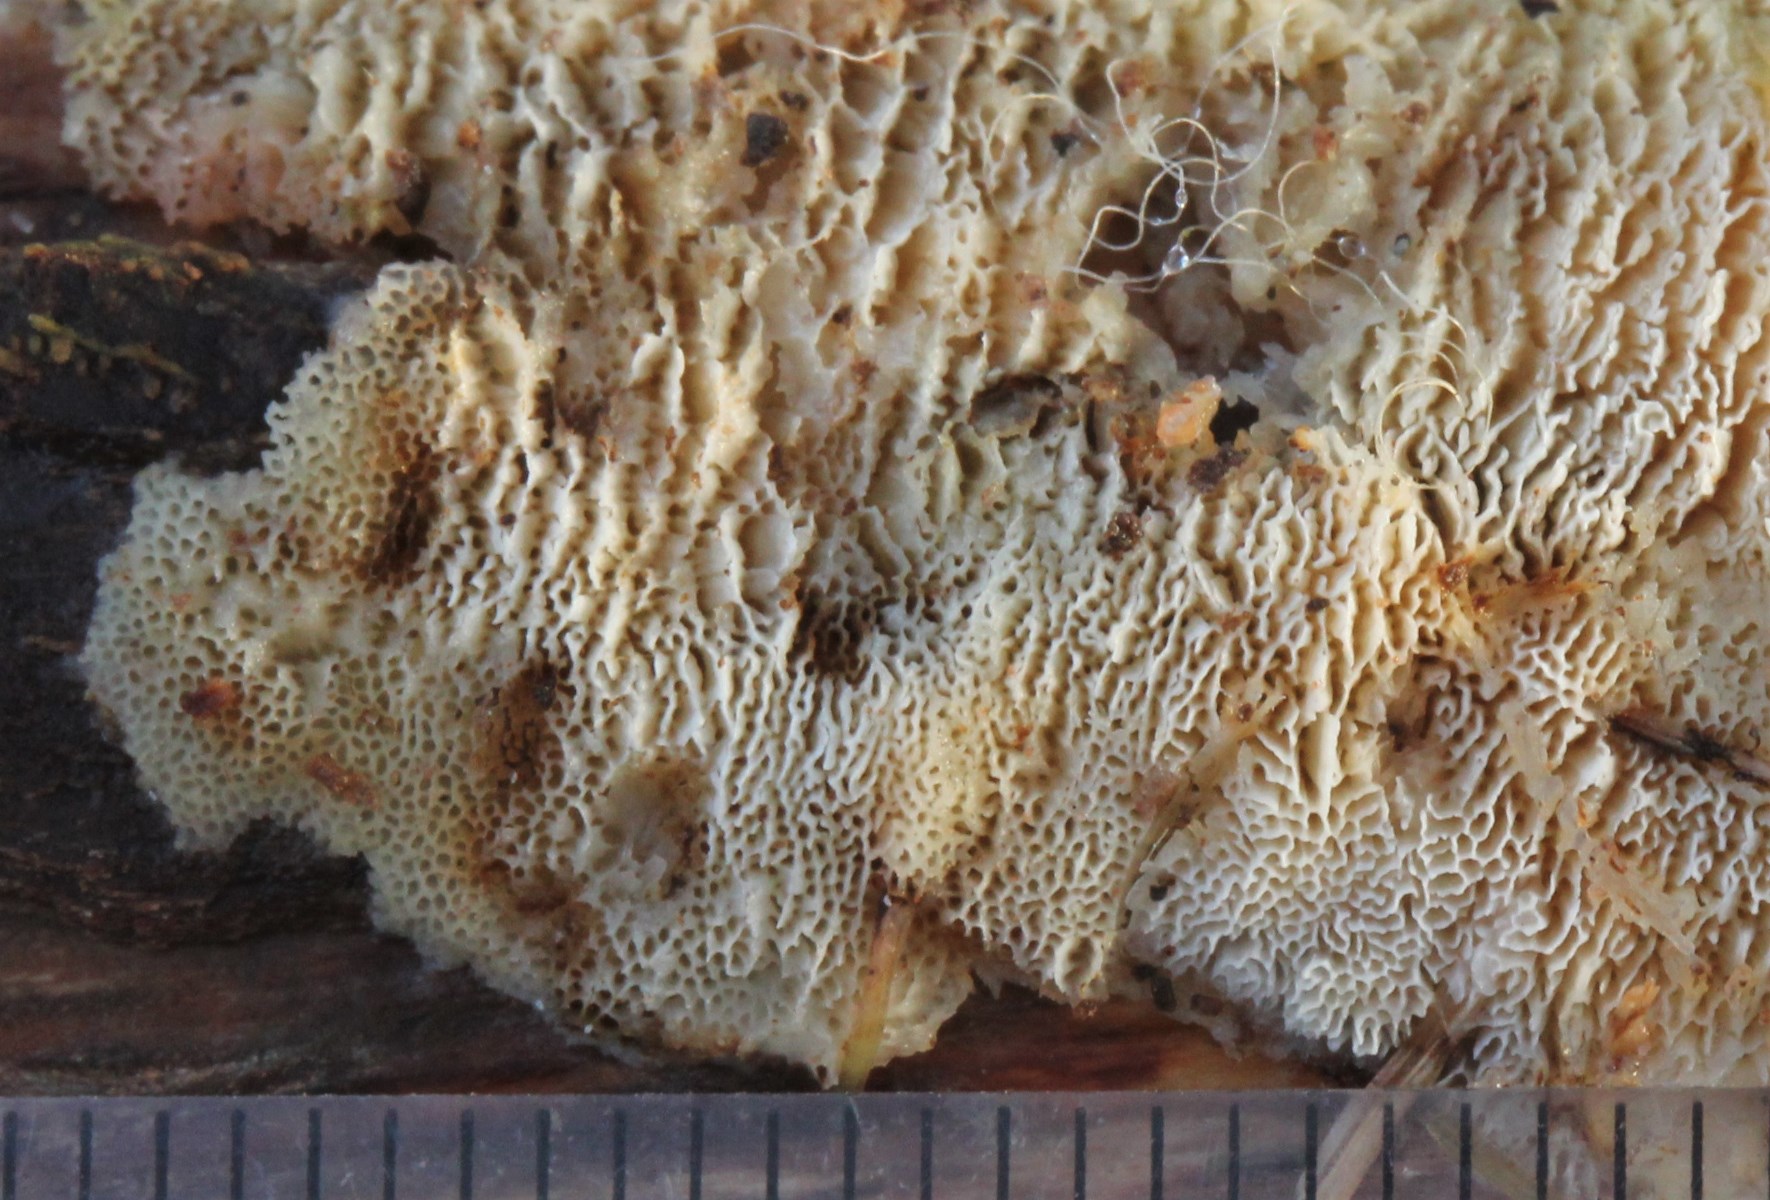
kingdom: Fungi
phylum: Basidiomycota
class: Agaricomycetes
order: Hymenochaetales
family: Schizoporaceae
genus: Xylodon
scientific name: Xylodon subtropicus
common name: labyrint-tandsvamp
